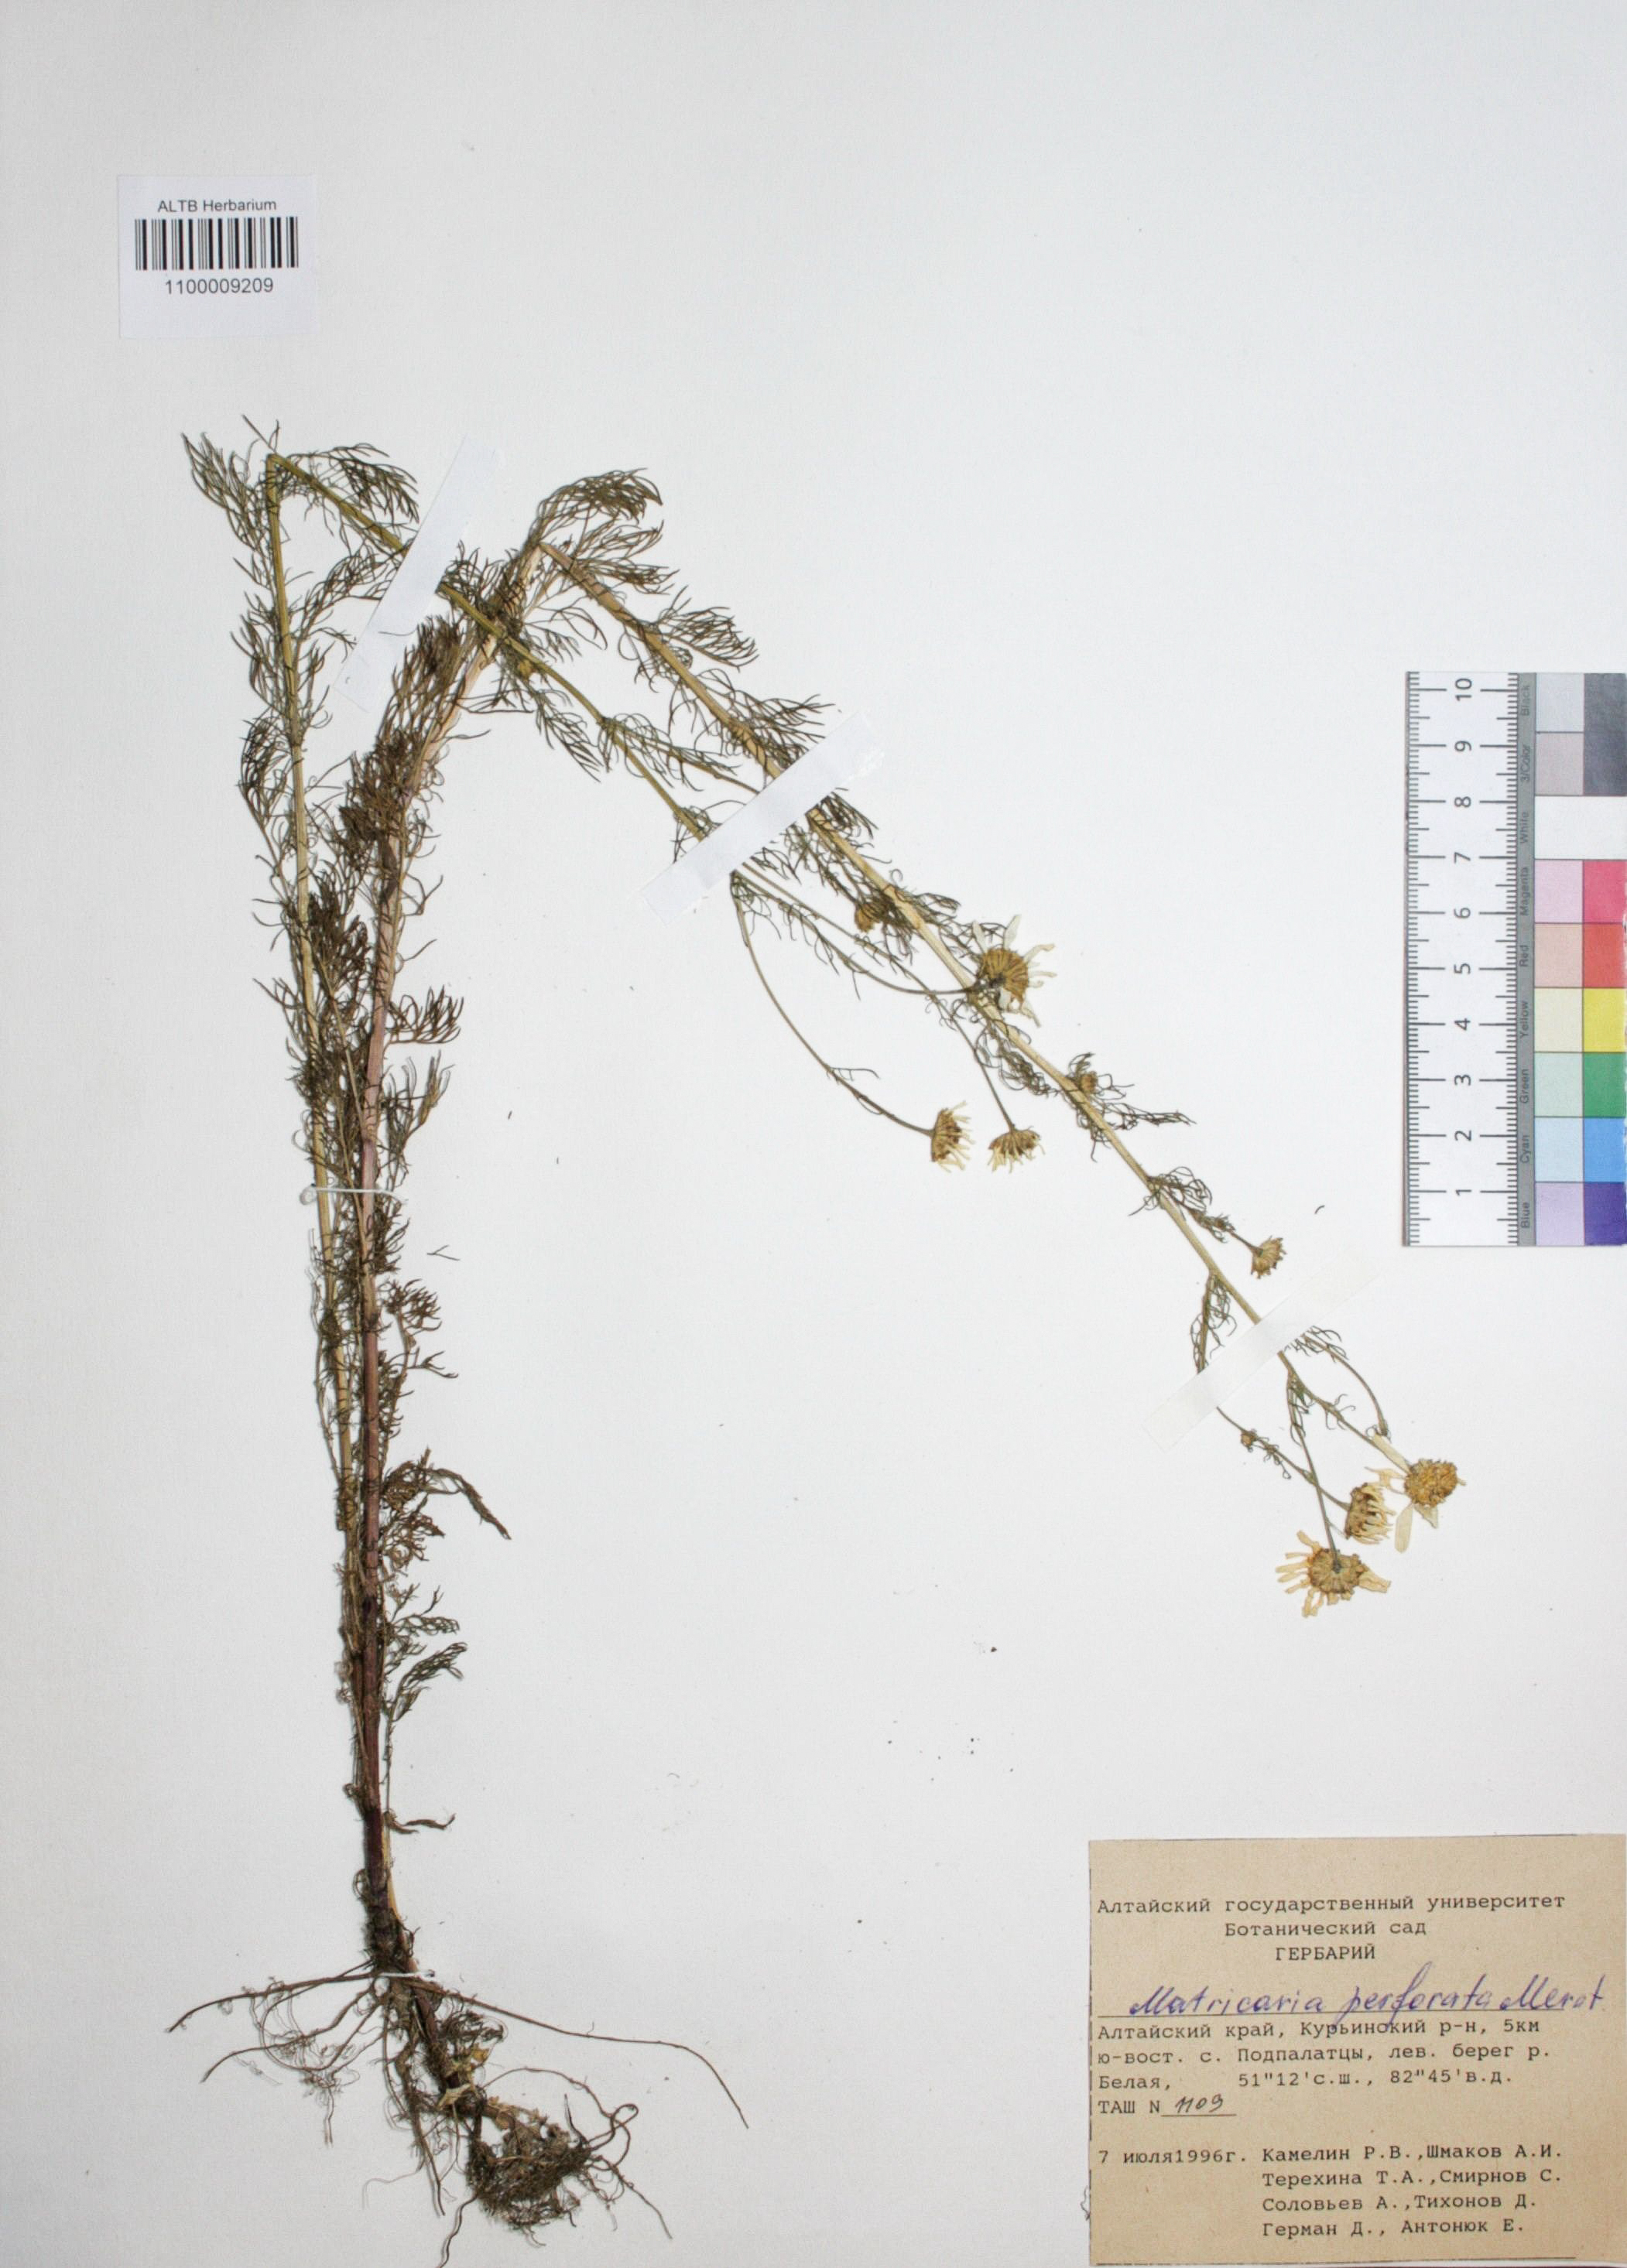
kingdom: Plantae
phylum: Tracheophyta
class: Magnoliopsida
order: Asterales
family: Asteraceae
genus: Tripleurospermum
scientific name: Tripleurospermum inodorum
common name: Scentless mayweed
